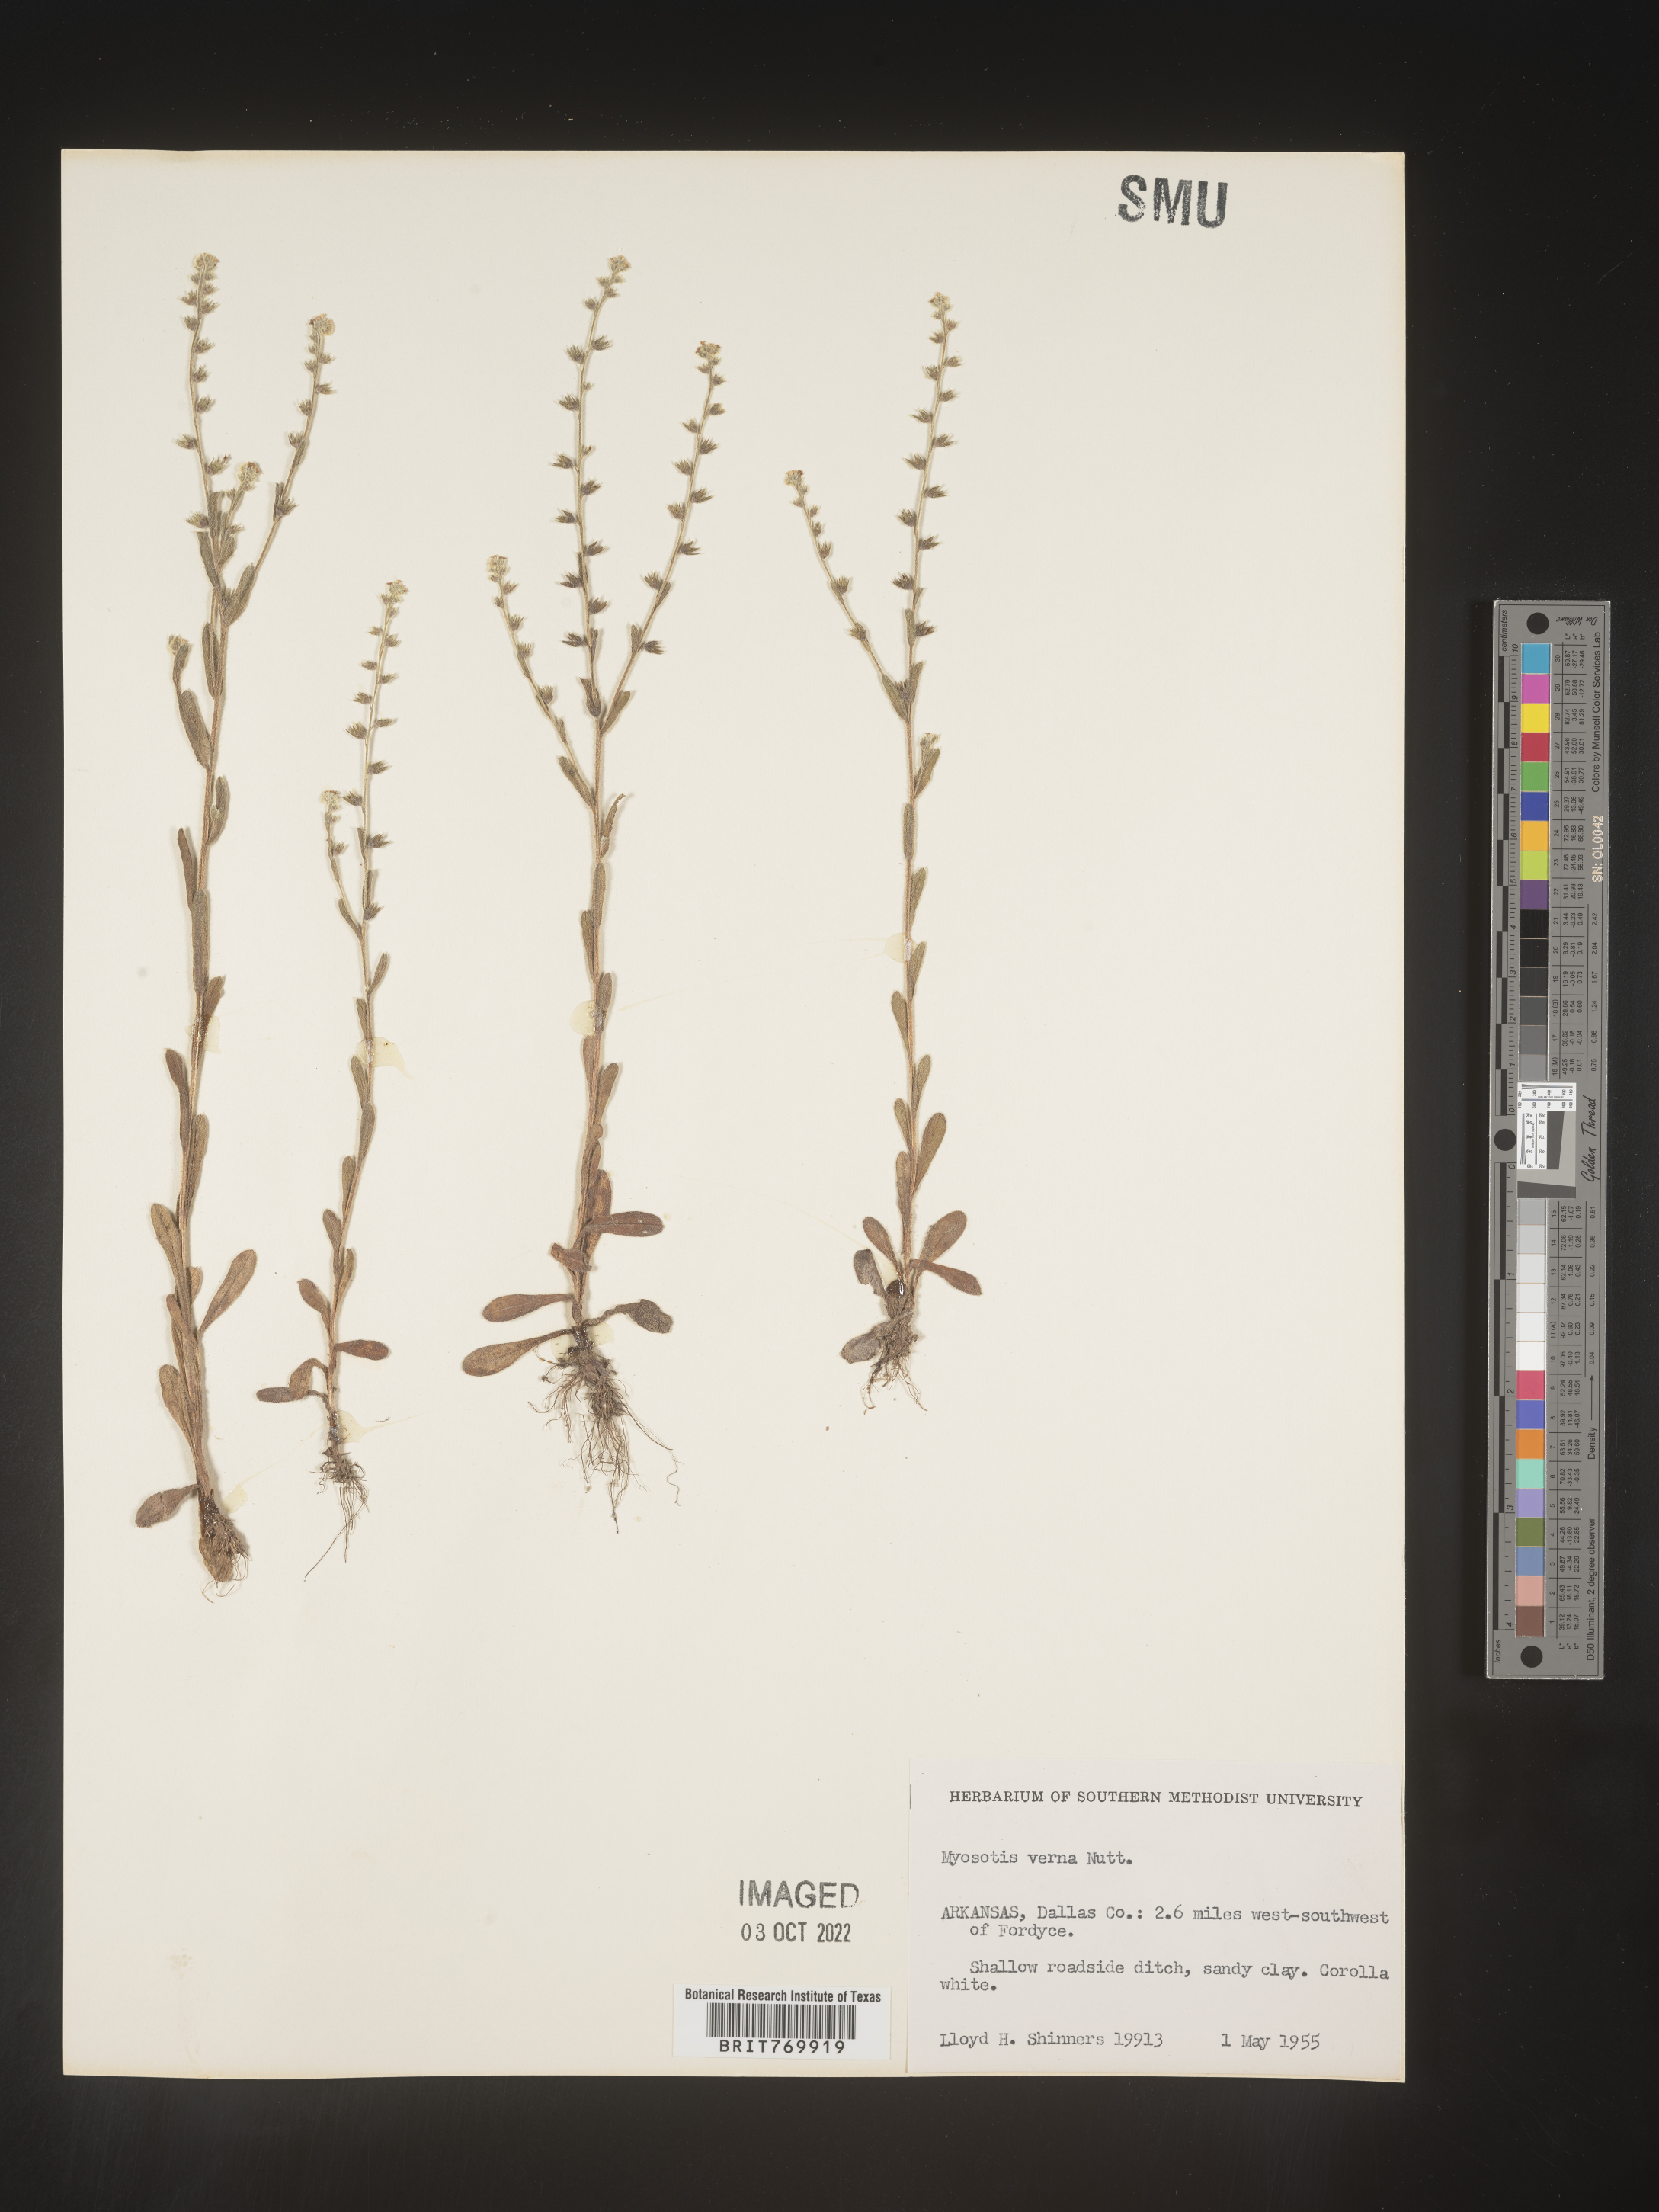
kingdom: Plantae
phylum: Tracheophyta
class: Magnoliopsida
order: Boraginales
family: Boraginaceae
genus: Myosotis
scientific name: Myosotis verna
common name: Early forget-me-not
